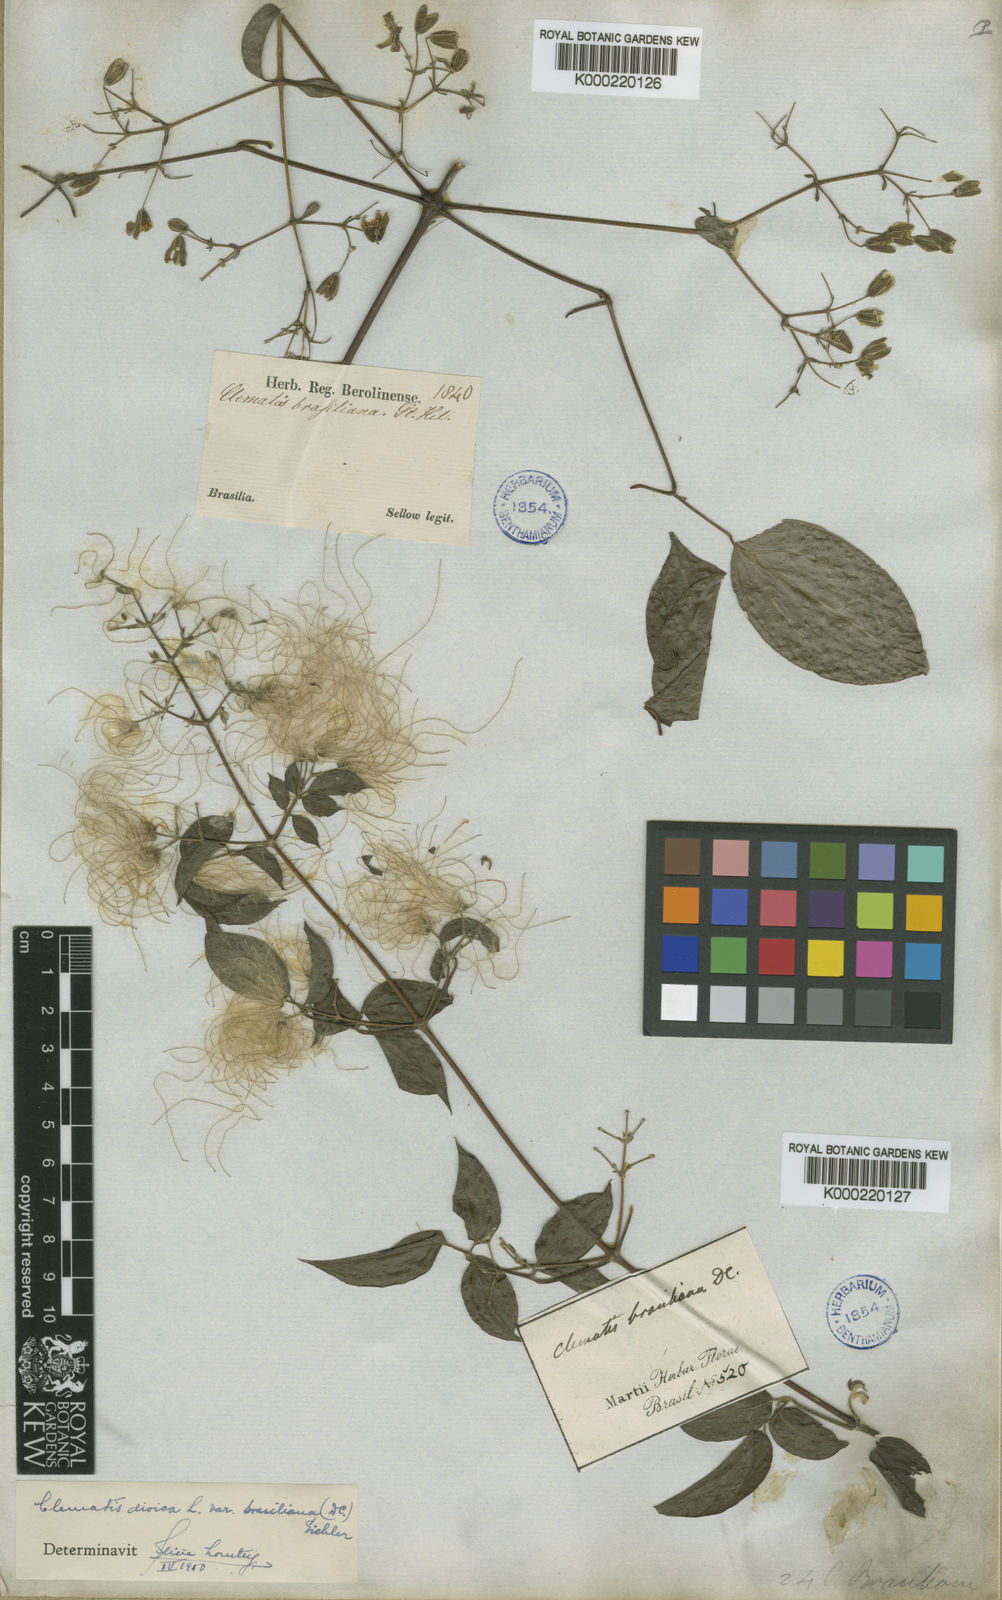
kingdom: Plantae
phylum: Tracheophyta
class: Magnoliopsida
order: Ranunculales
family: Ranunculaceae
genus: Clematis
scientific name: Clematis brasiliana
